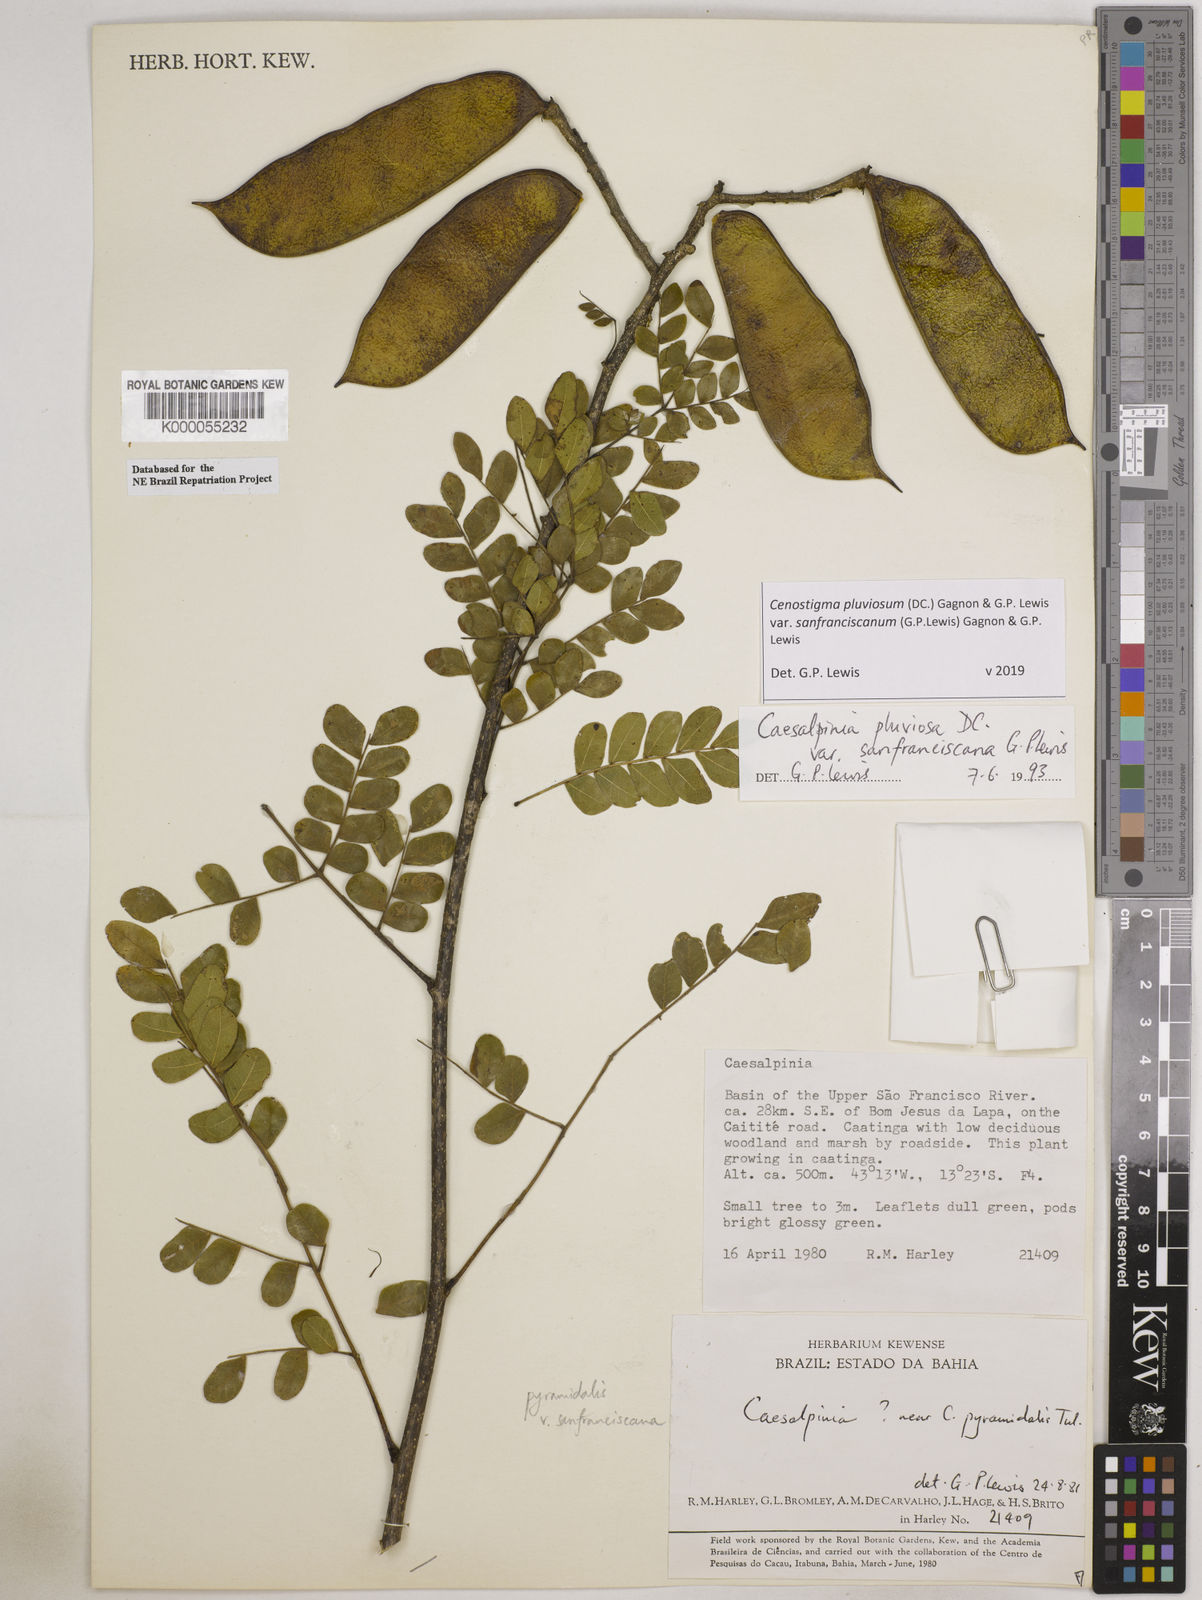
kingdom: Plantae
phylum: Tracheophyta
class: Magnoliopsida
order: Fabales
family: Fabaceae
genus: Cenostigma
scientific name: Cenostigma pluviosum
